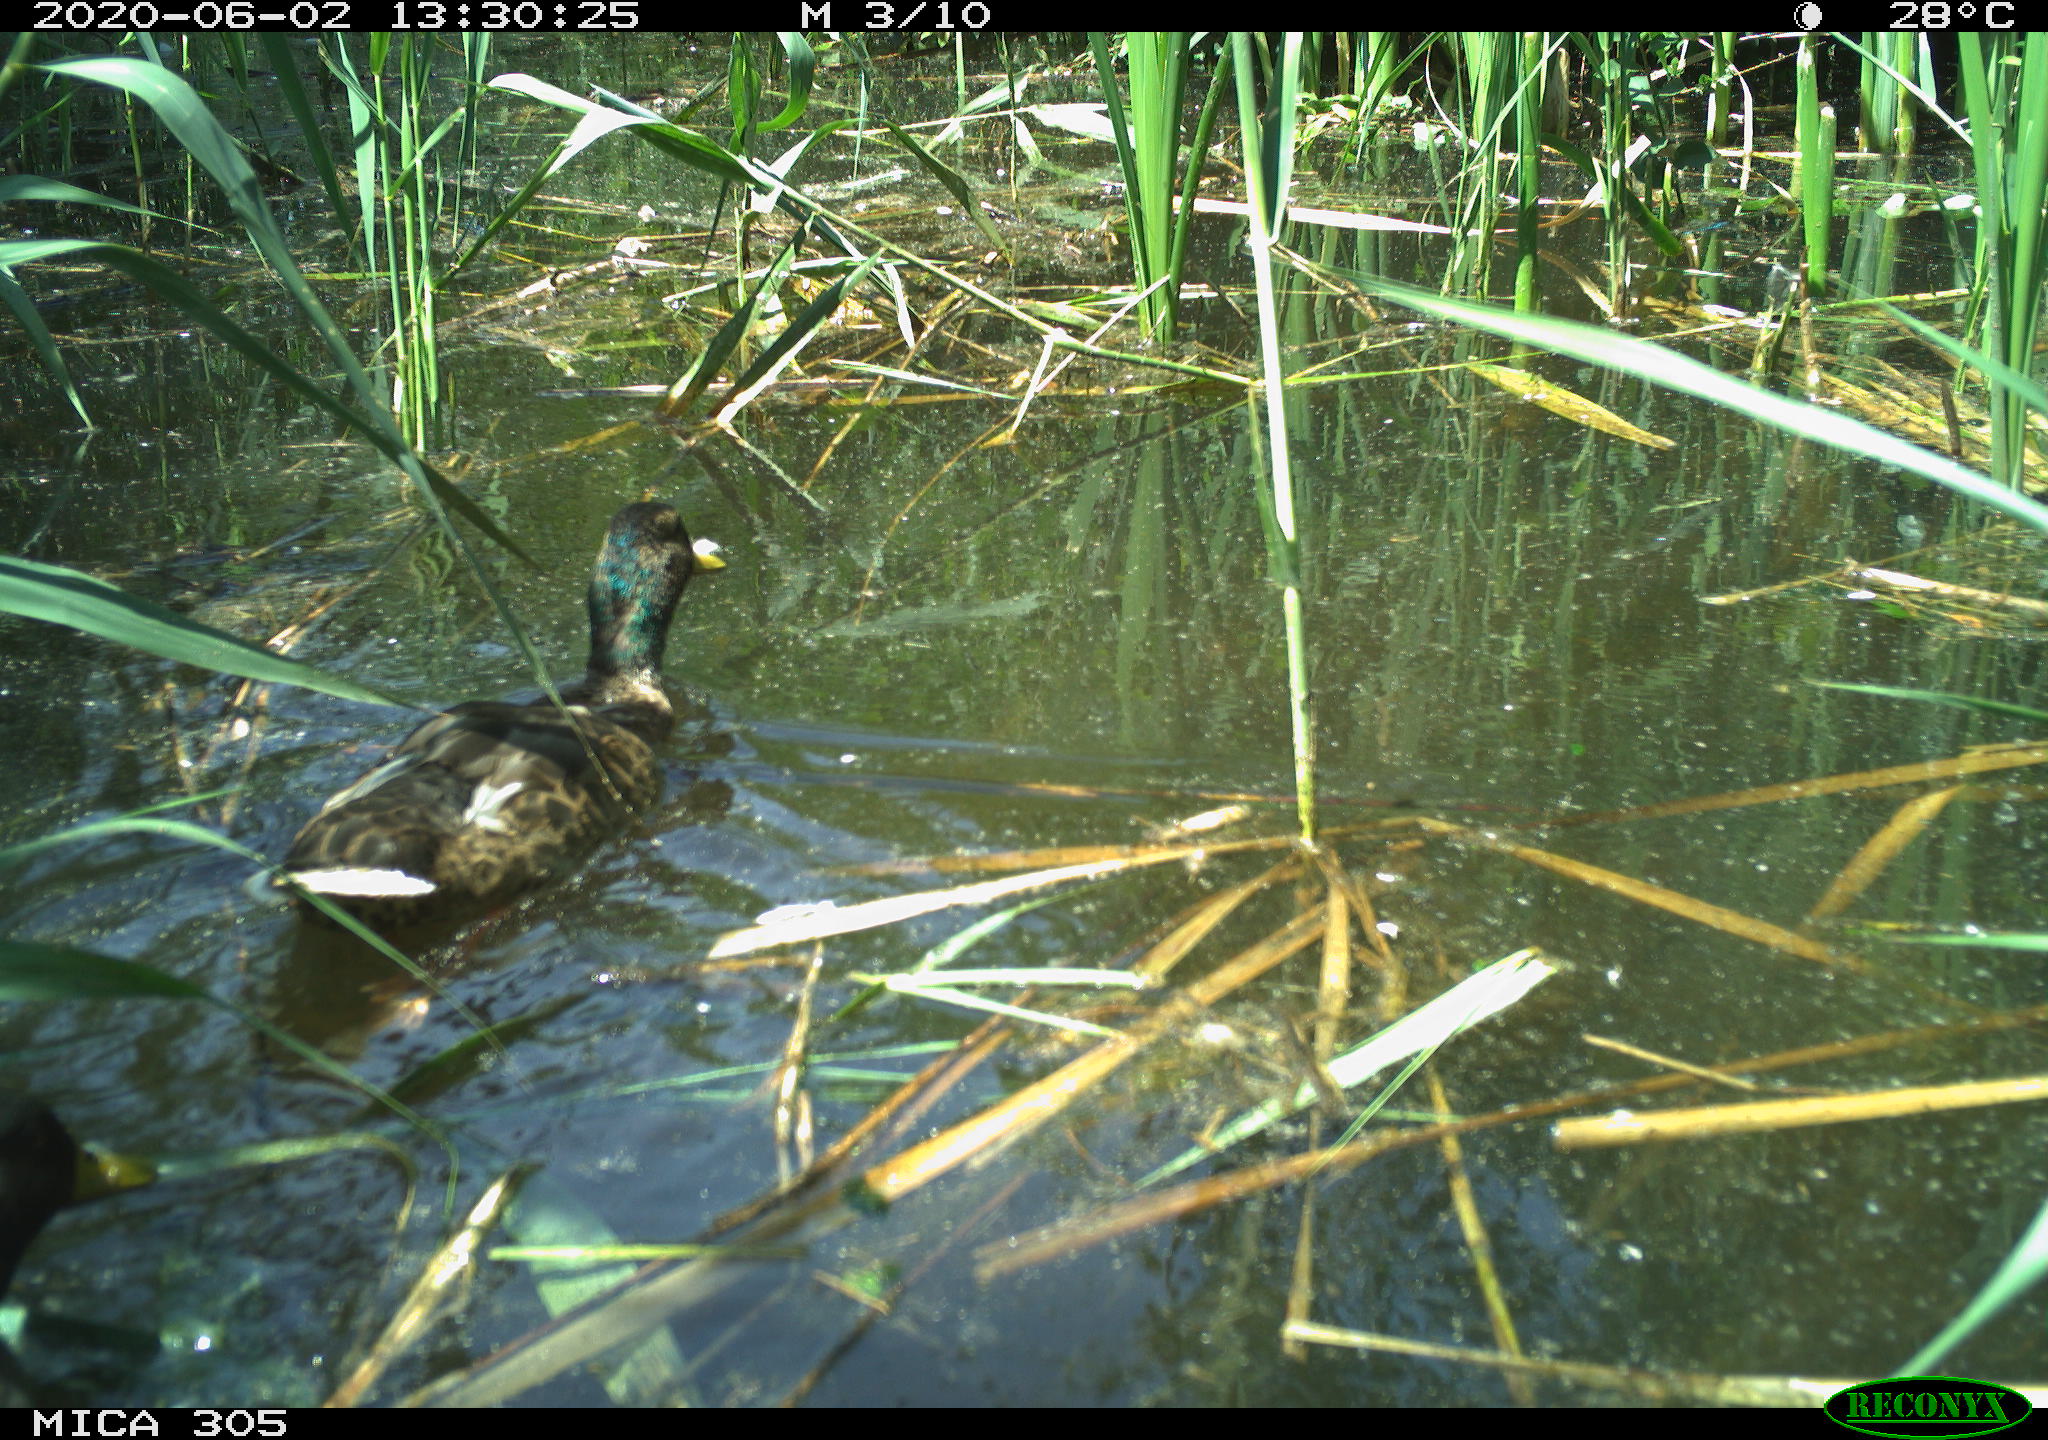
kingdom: Animalia
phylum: Chordata
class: Aves
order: Anseriformes
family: Anatidae
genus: Anas
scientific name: Anas platyrhynchos
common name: Mallard
